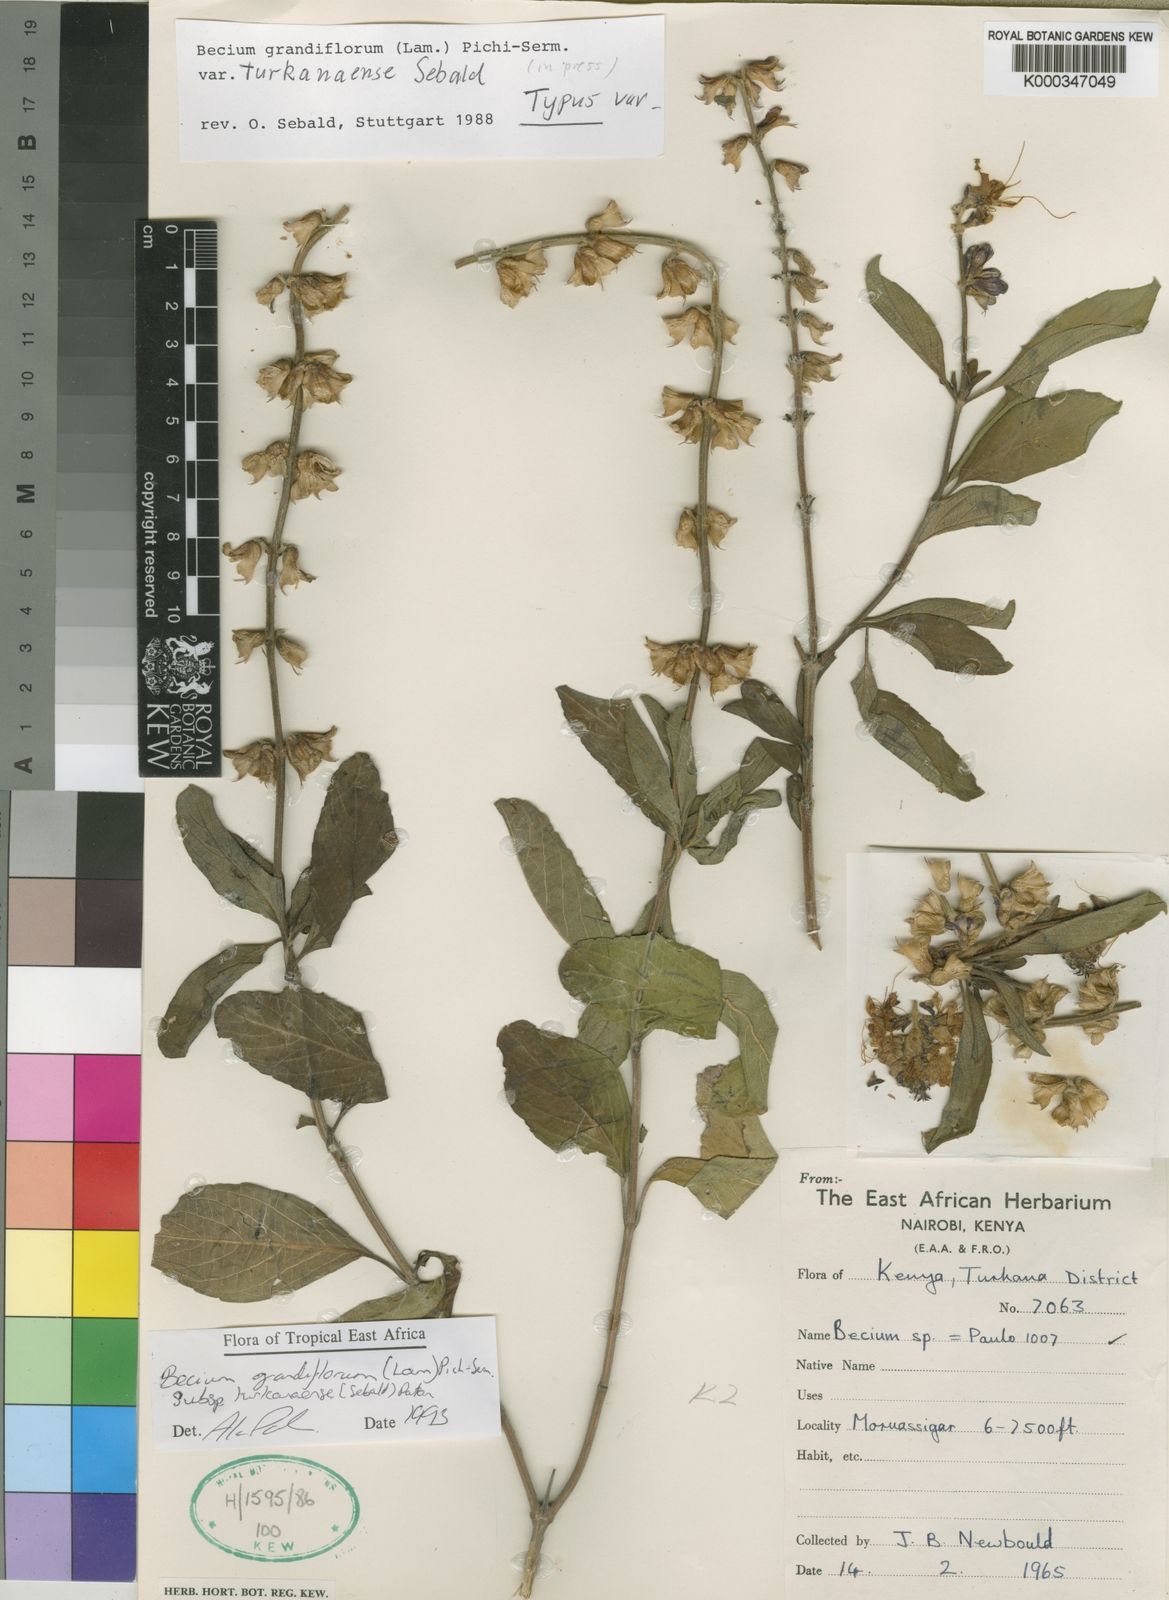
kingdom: Plantae
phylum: Tracheophyta
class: Magnoliopsida
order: Lamiales
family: Lamiaceae
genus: Ocimum
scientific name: Ocimum grandiflorum
